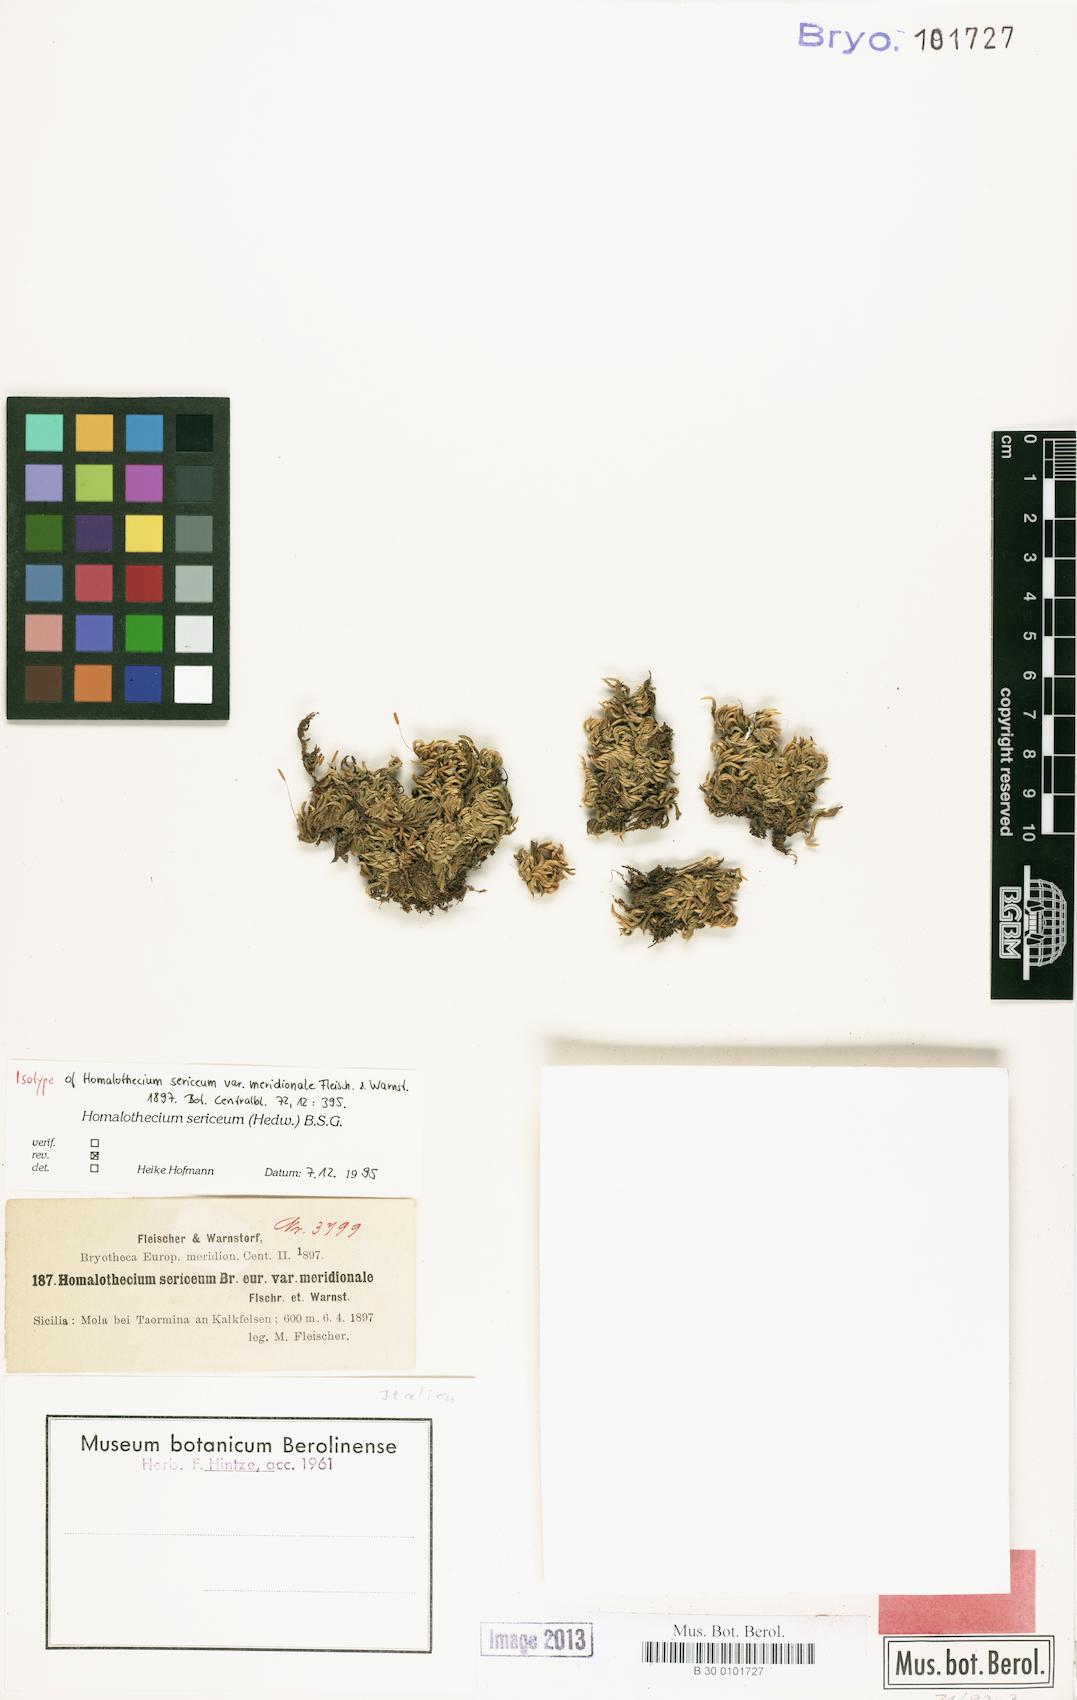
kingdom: Plantae
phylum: Bryophyta
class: Bryopsida
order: Hypnales
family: Brachytheciaceae
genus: Homalothecium
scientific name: Homalothecium sericeum
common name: Silky wall feather-moss
